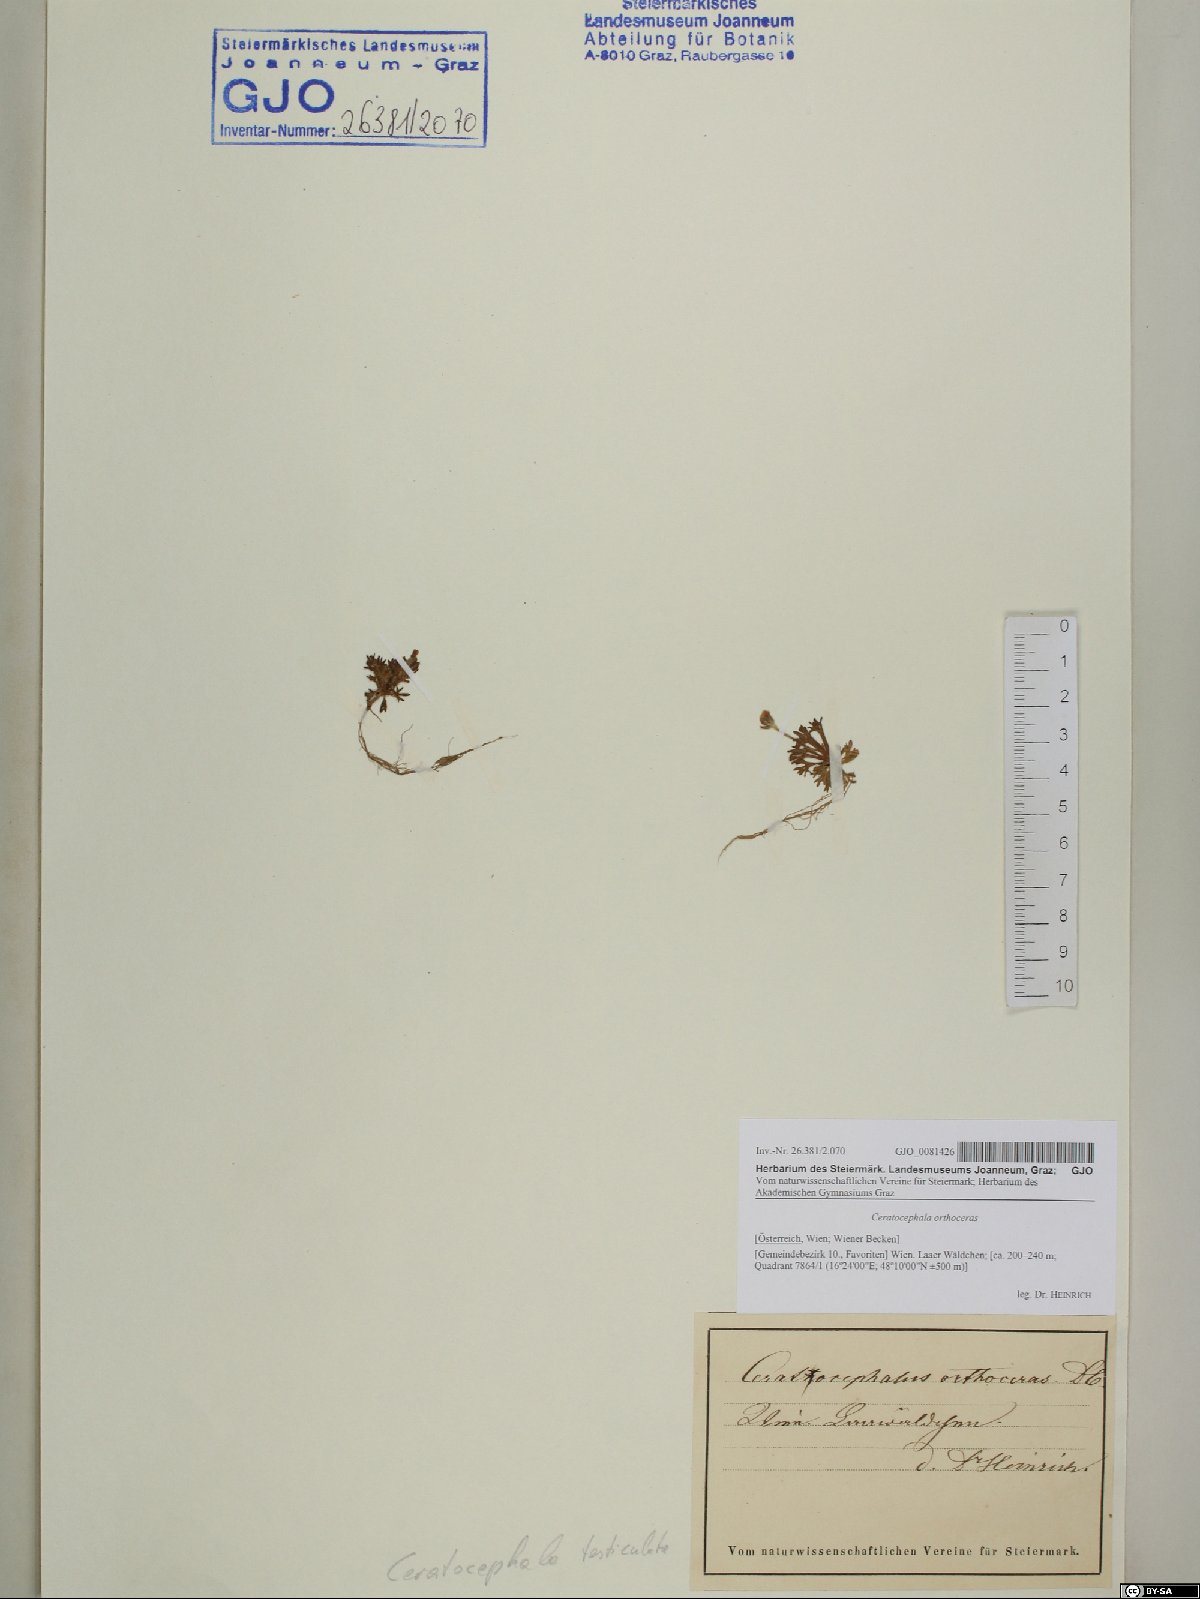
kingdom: Plantae
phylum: Tracheophyta
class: Magnoliopsida
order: Ranunculales
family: Ranunculaceae
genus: Ceratocephala
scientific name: Ceratocephala orthoceras
